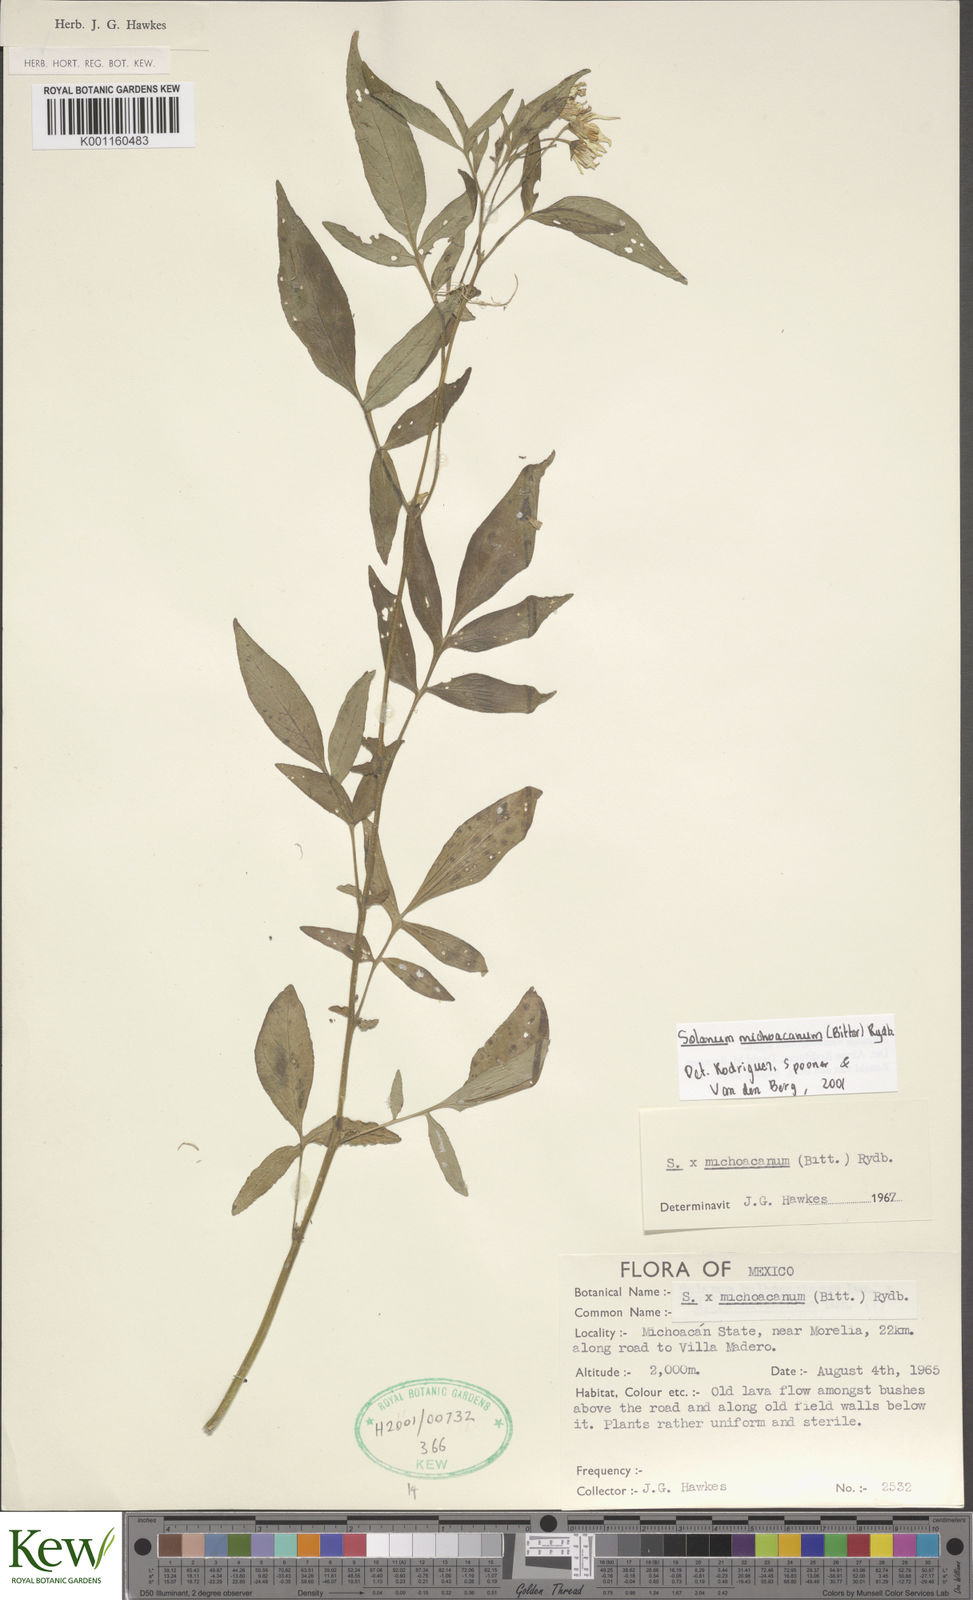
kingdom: Plantae
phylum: Tracheophyta
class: Magnoliopsida
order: Solanales
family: Solanaceae
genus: Solanum
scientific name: Solanum bulbocastanum
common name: Ornamental nightshade
